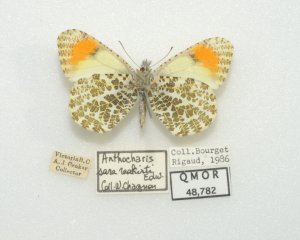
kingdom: Animalia
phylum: Arthropoda
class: Insecta
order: Lepidoptera
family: Pieridae
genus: Anthocharis
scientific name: Anthocharis sara
